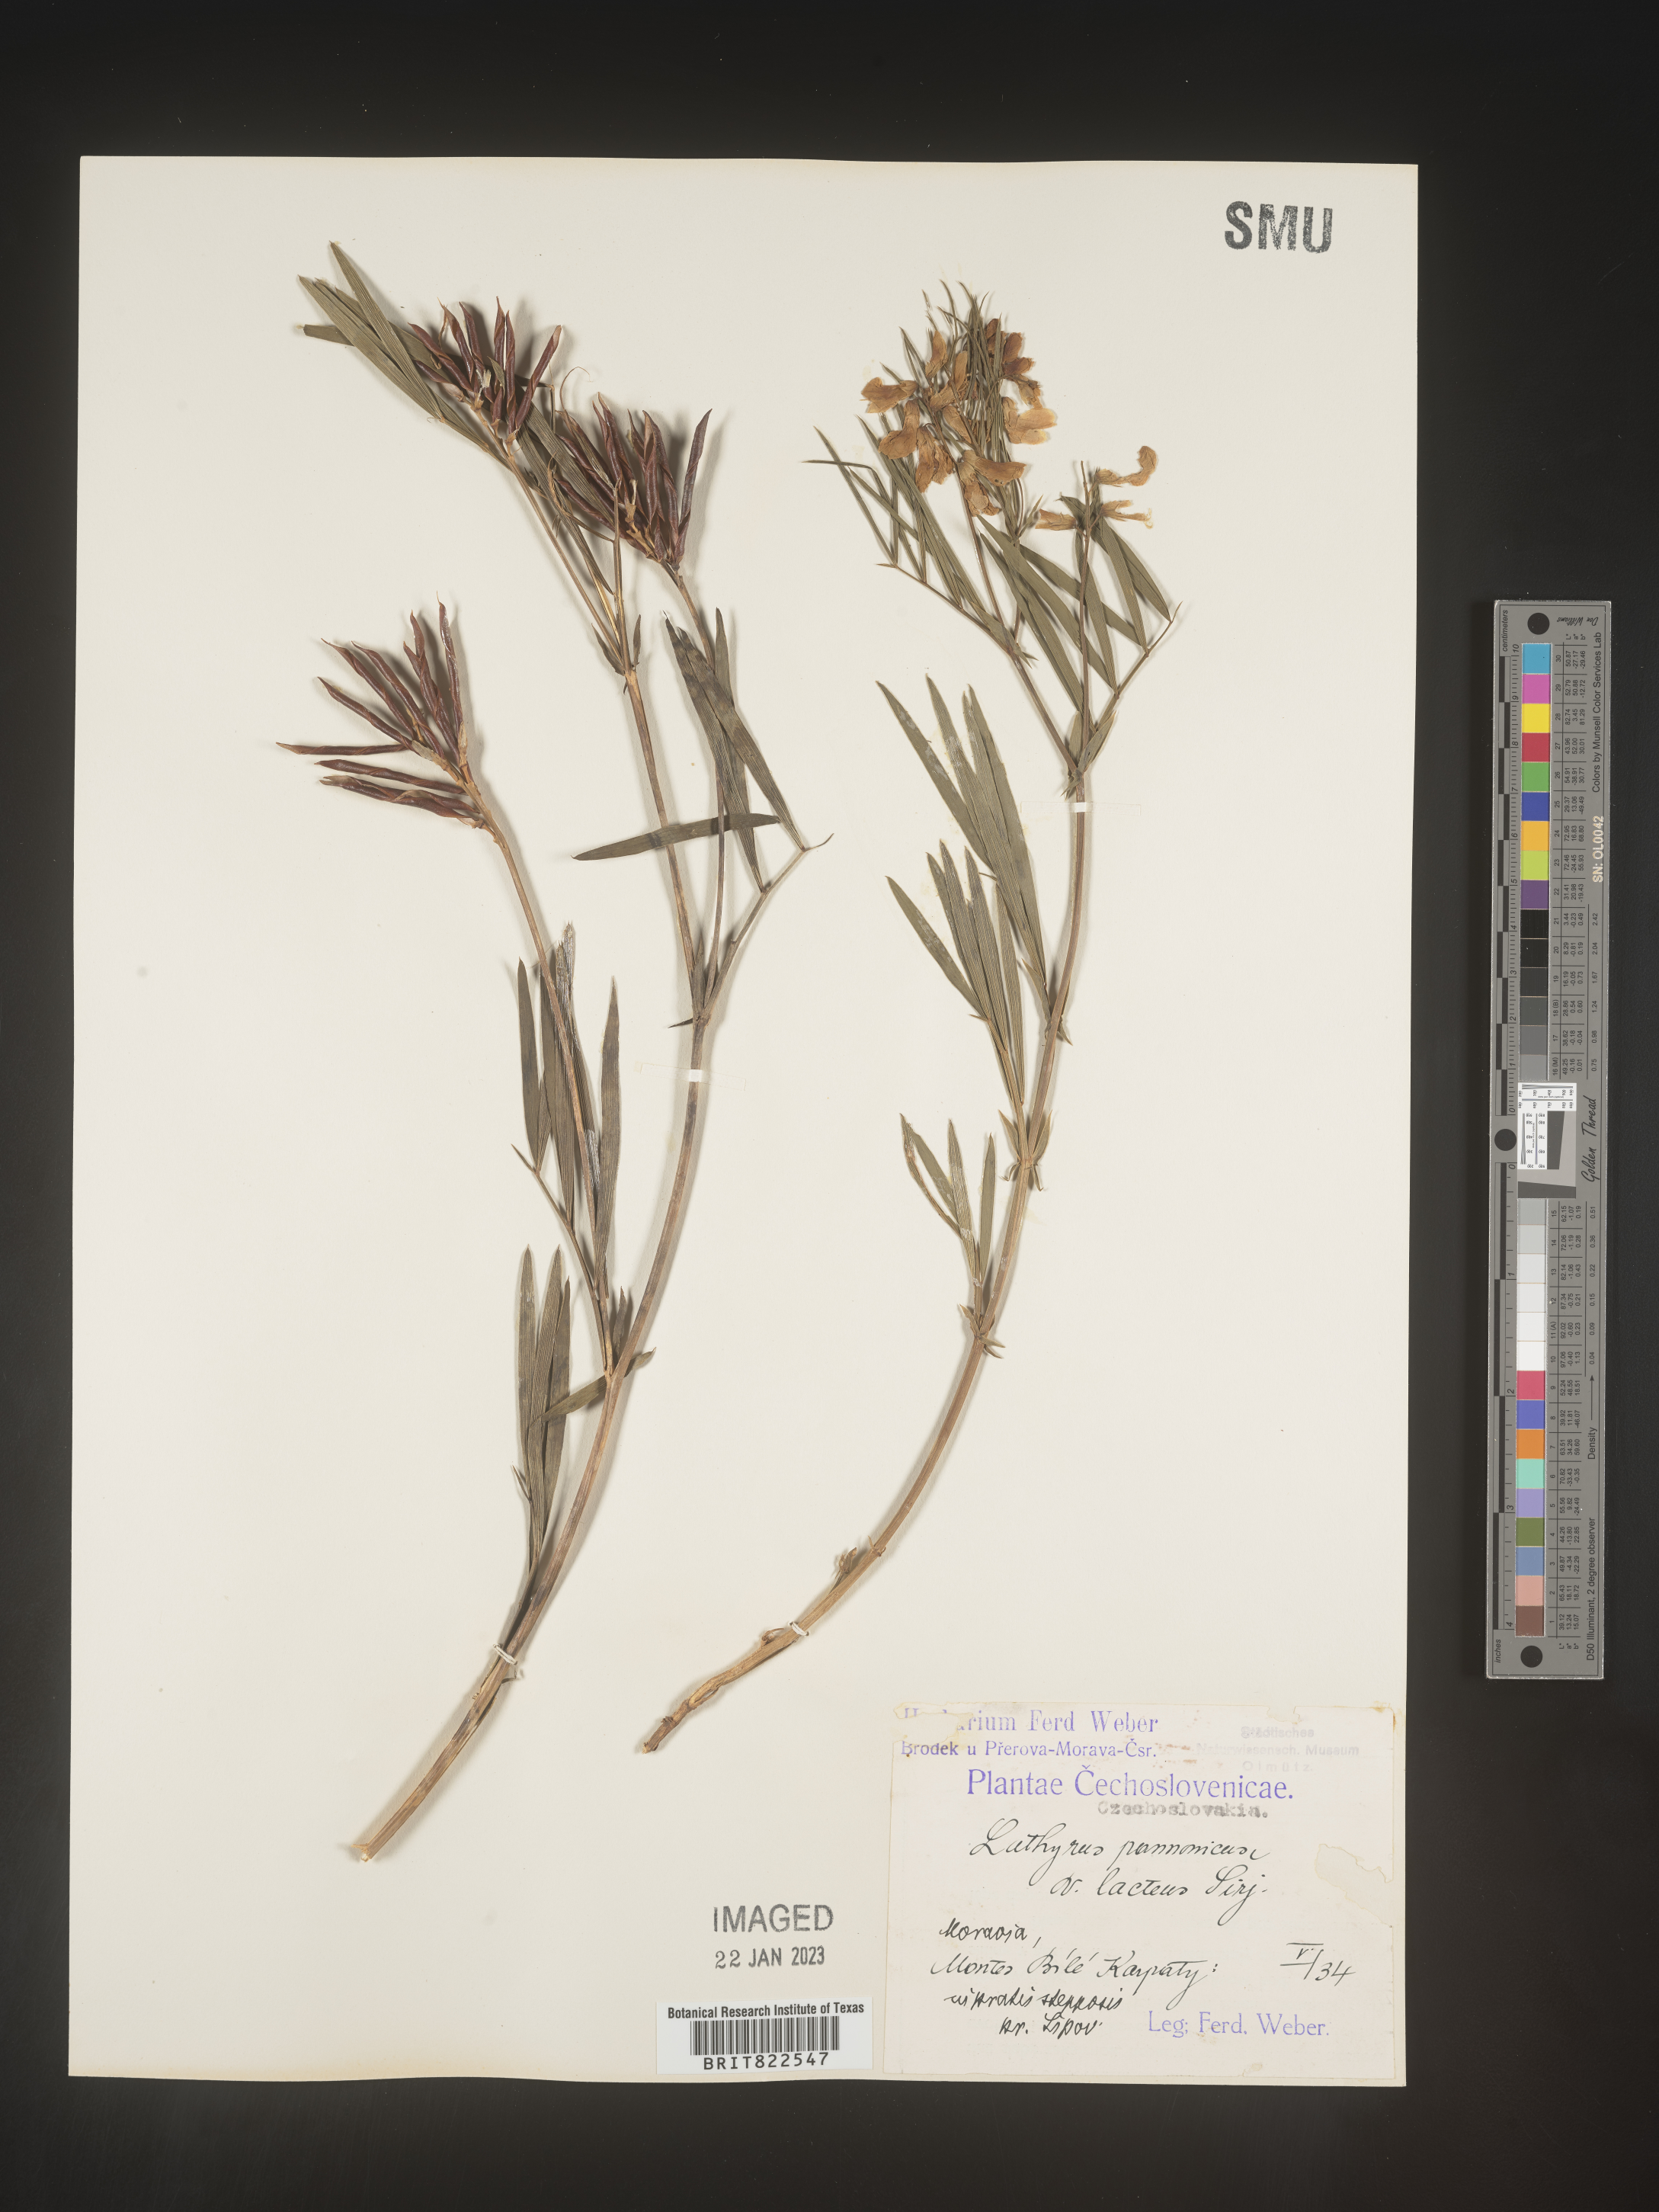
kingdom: Plantae
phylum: Tracheophyta
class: Magnoliopsida
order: Fabales
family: Fabaceae
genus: Lathyrus
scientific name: Lathyrus
